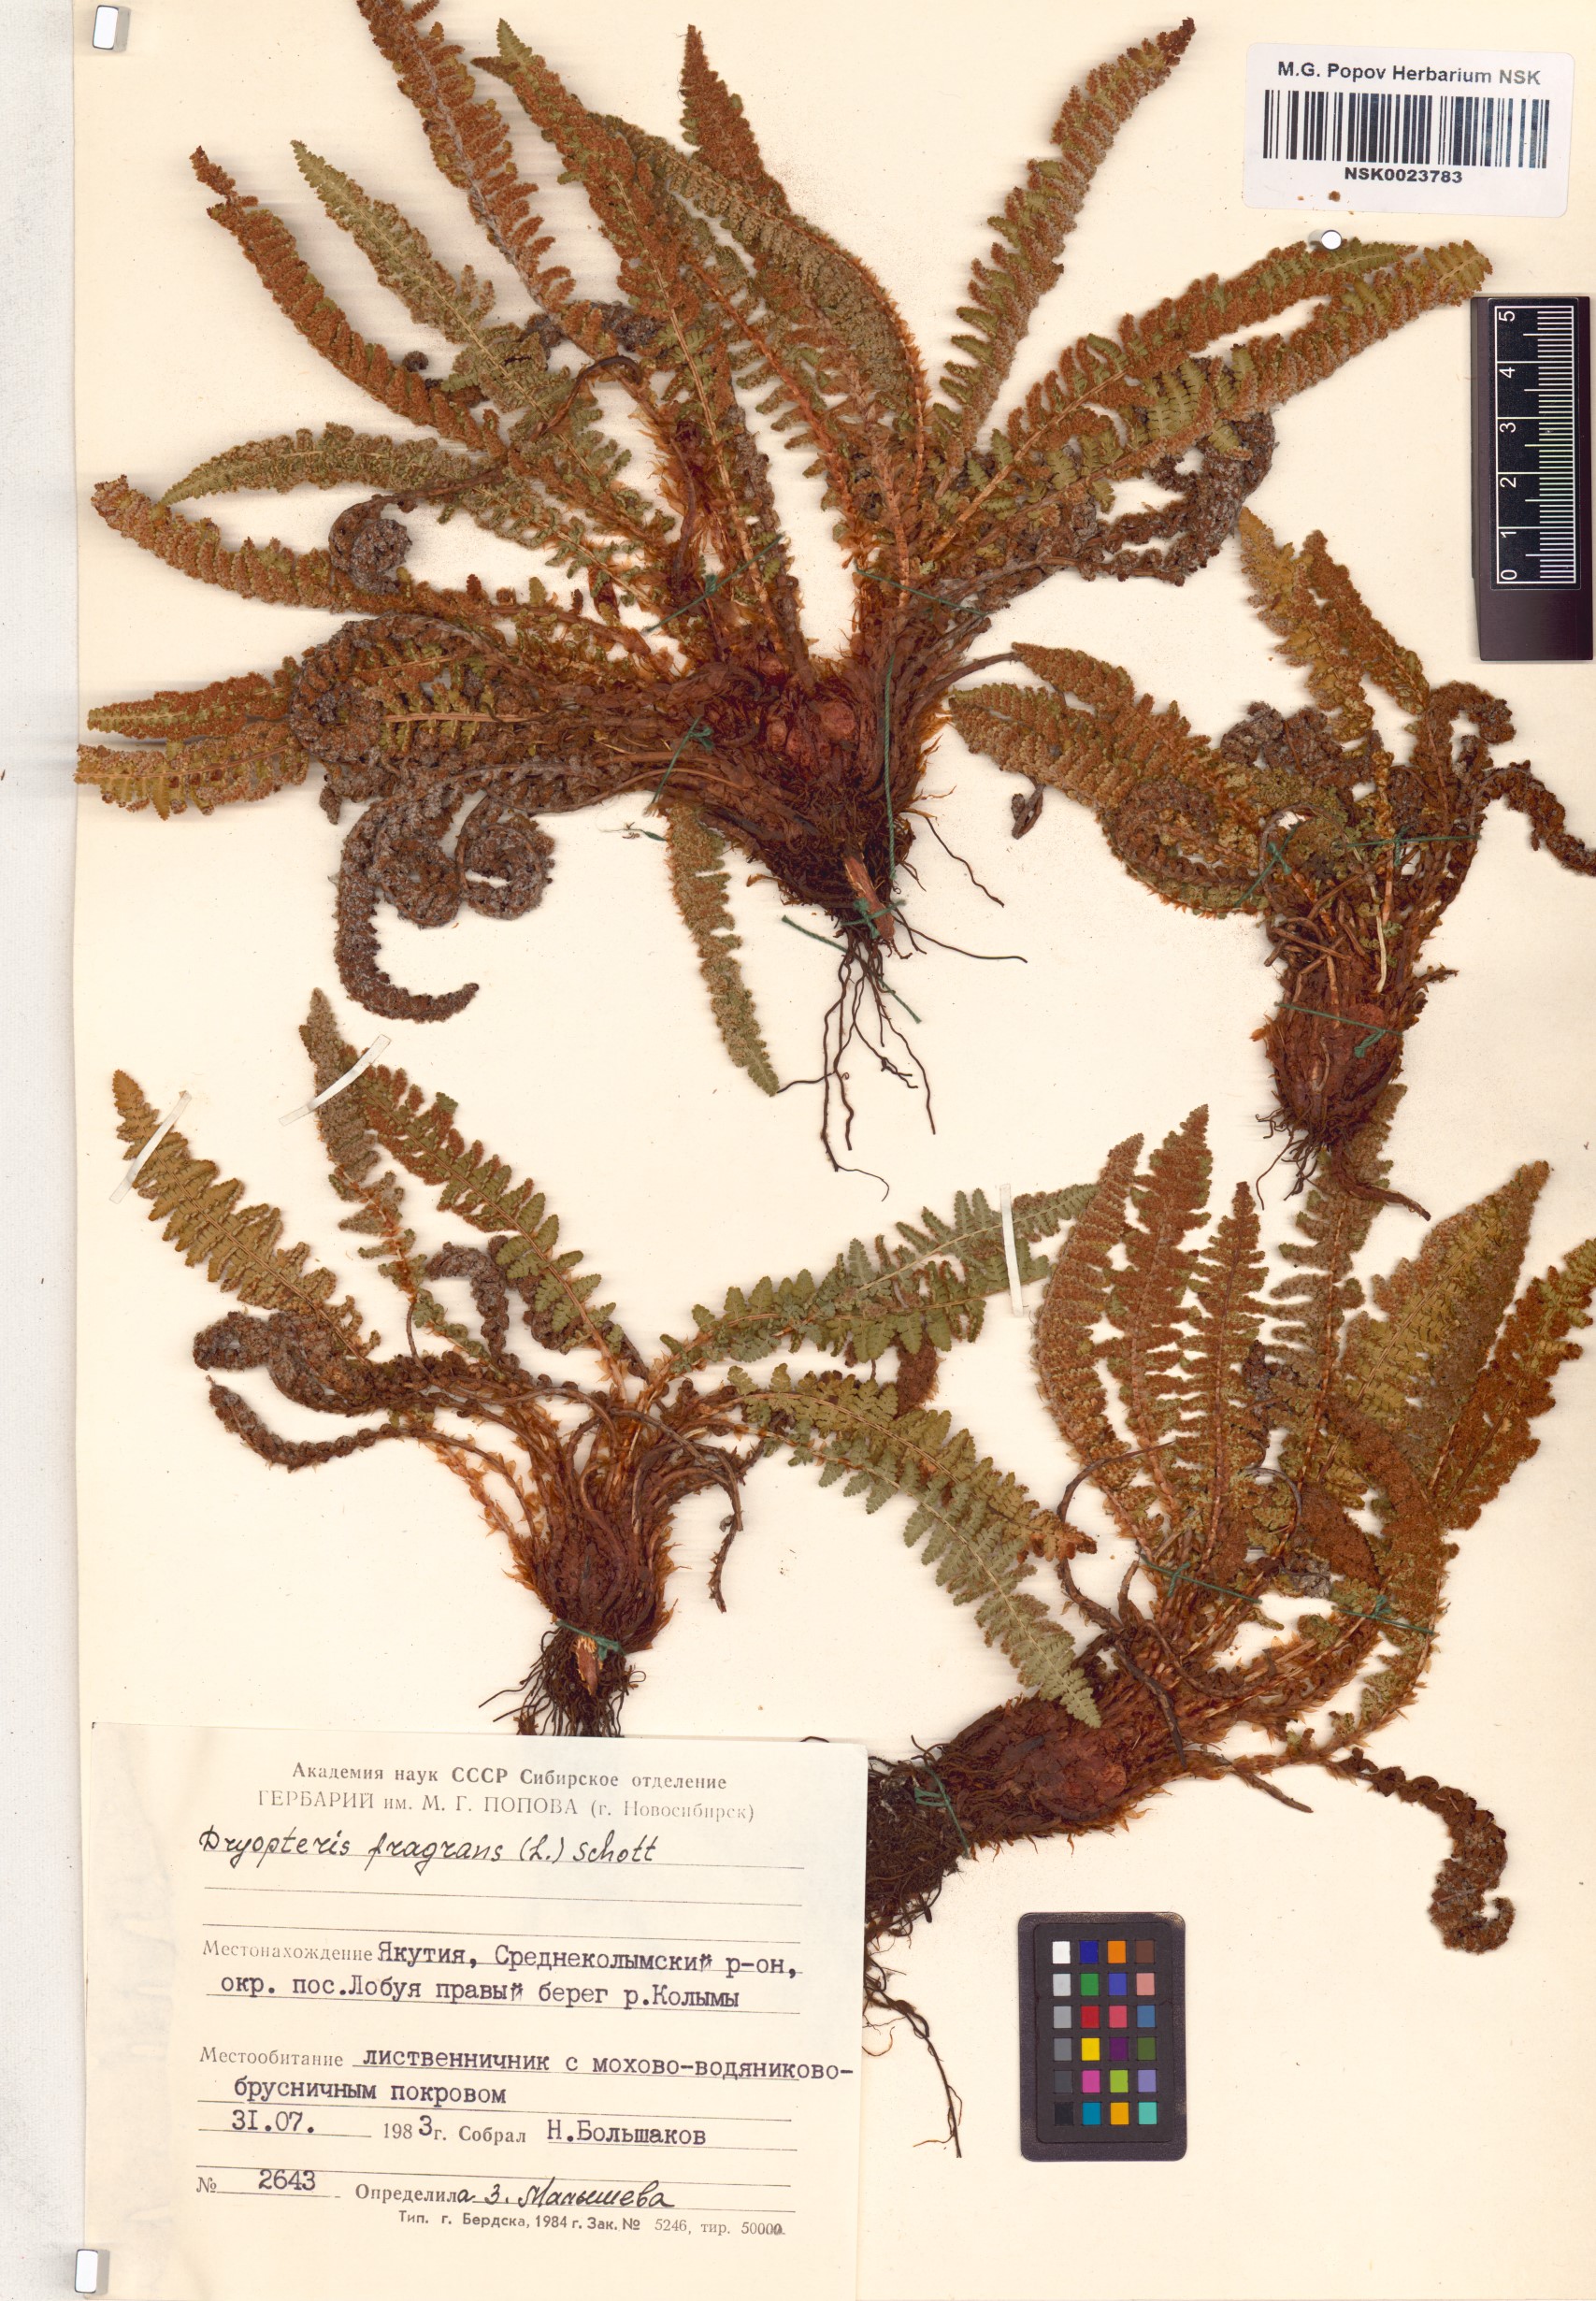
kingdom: Plantae
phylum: Tracheophyta
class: Polypodiopsida
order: Polypodiales
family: Dryopteridaceae
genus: Dryopteris
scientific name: Dryopteris fragrans
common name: Fragrant wood fern
